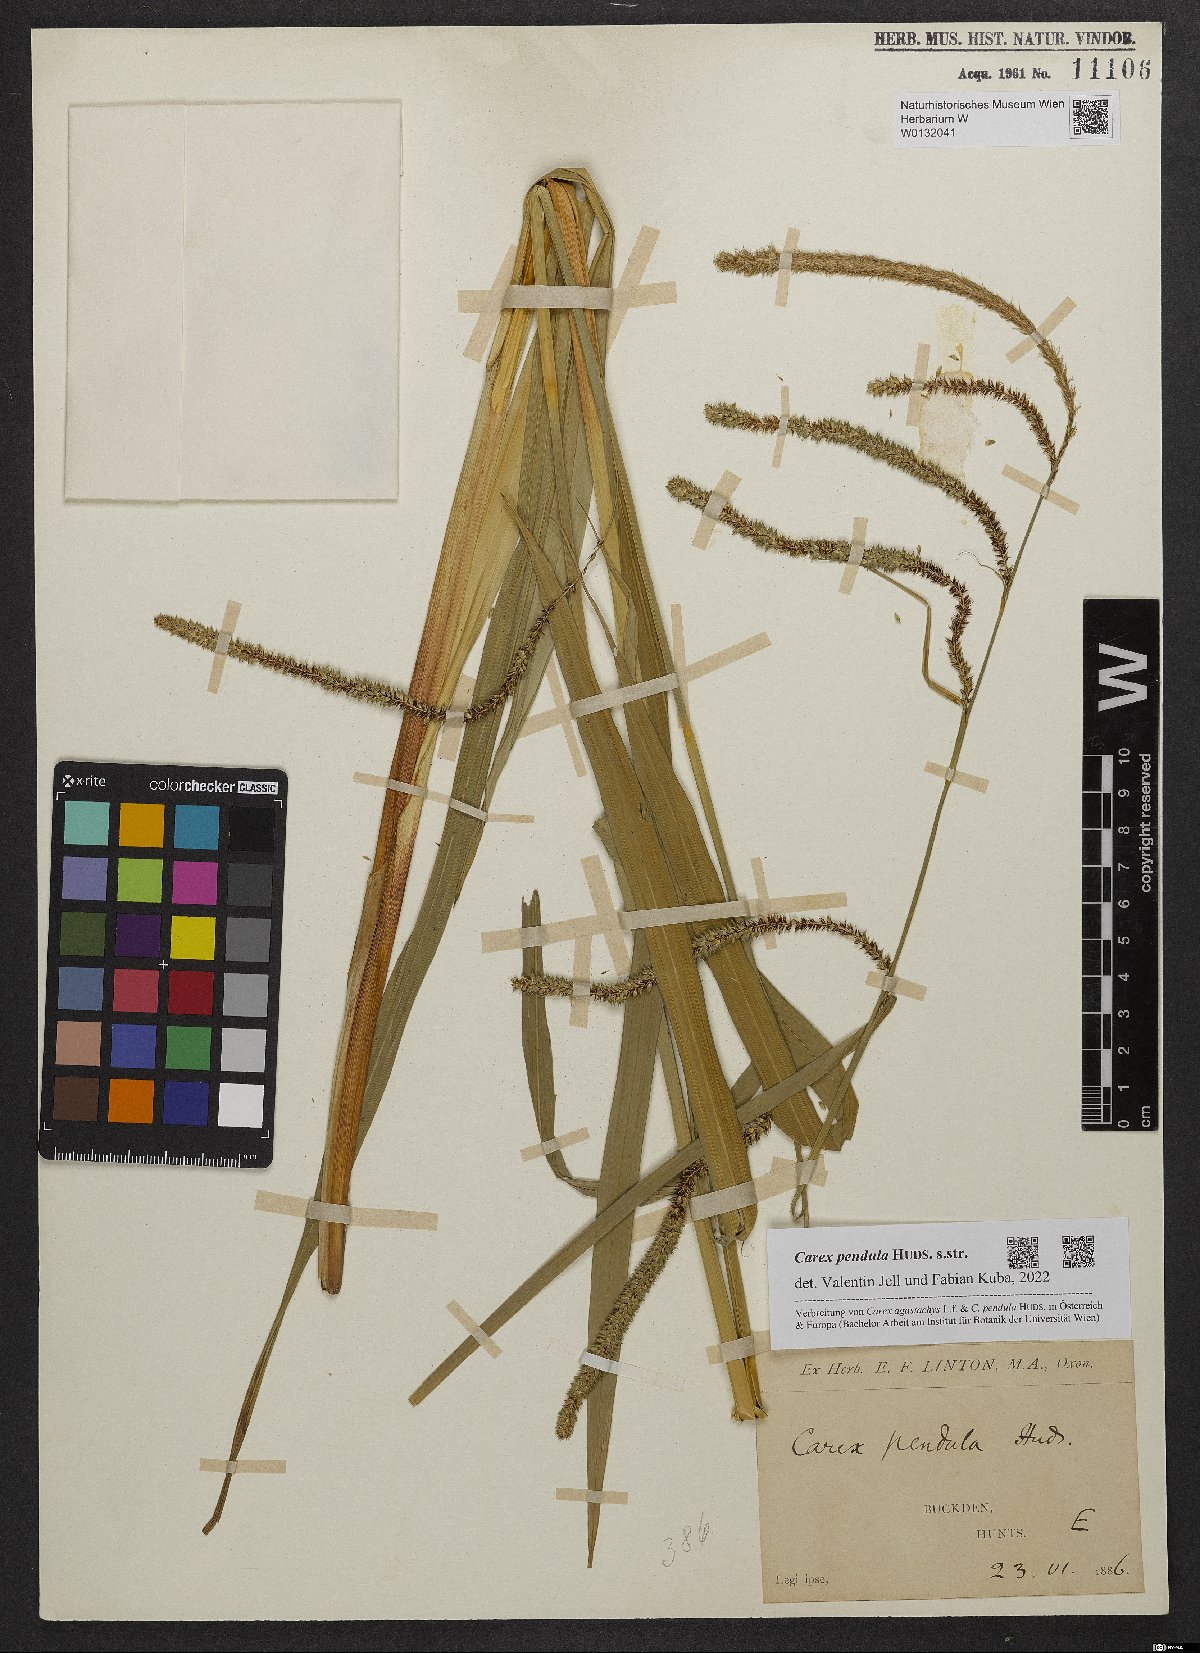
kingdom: Plantae
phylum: Tracheophyta
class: Liliopsida
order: Poales
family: Cyperaceae
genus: Carex
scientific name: Carex pendula
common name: Pendulous sedge
